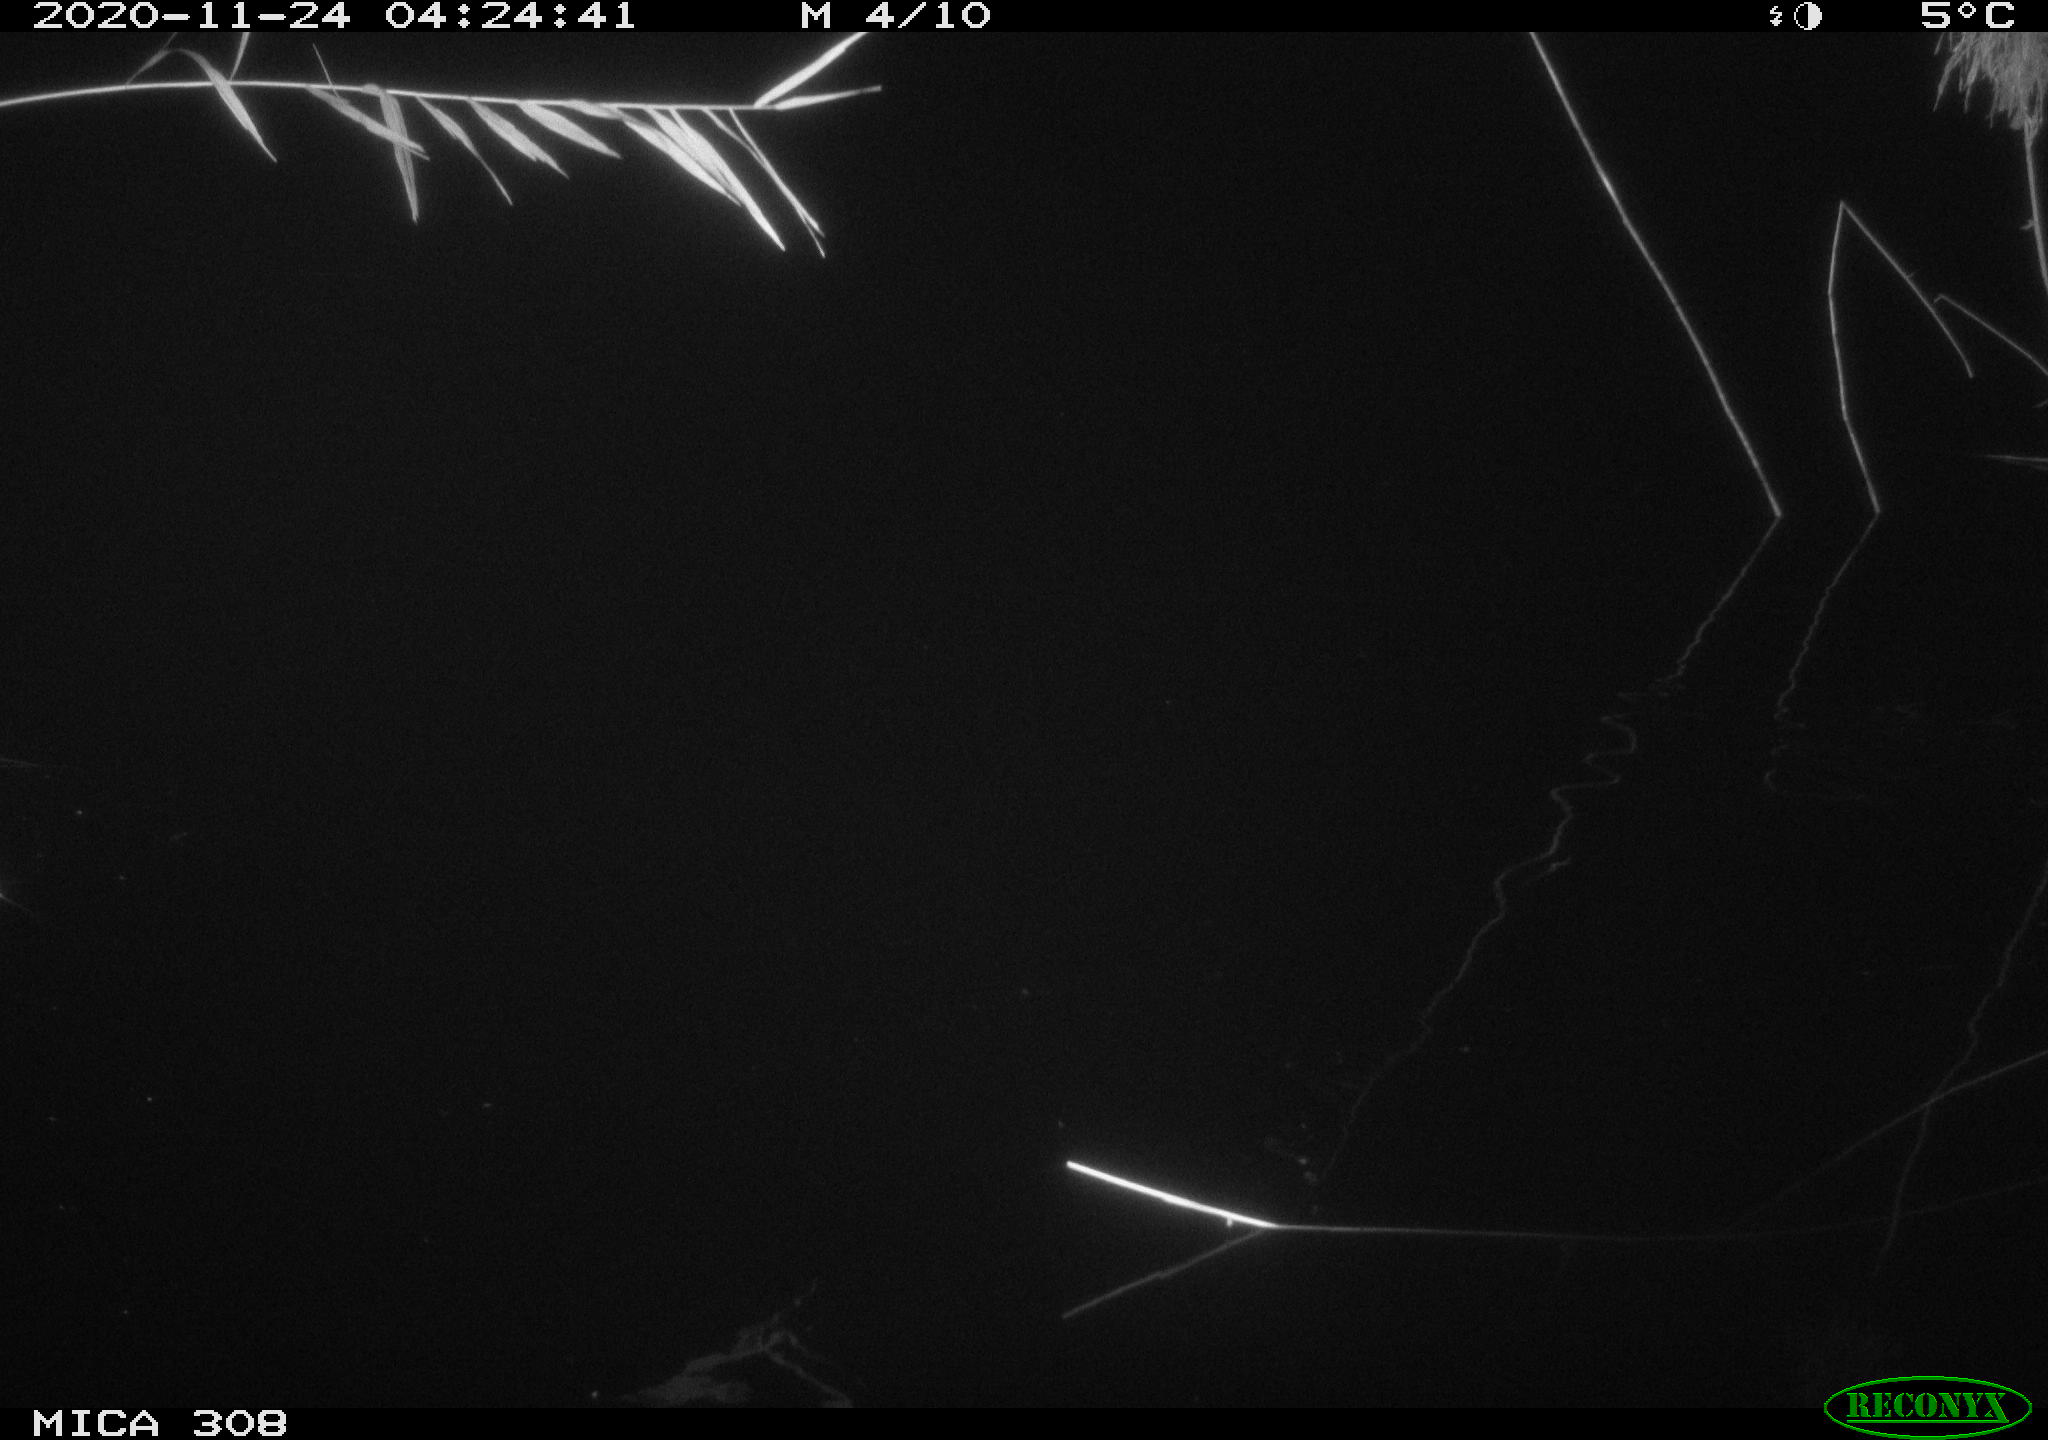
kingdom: Animalia
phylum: Chordata
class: Aves
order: Anseriformes
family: Anatidae
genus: Anas
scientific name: Anas platyrhynchos
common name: Mallard
